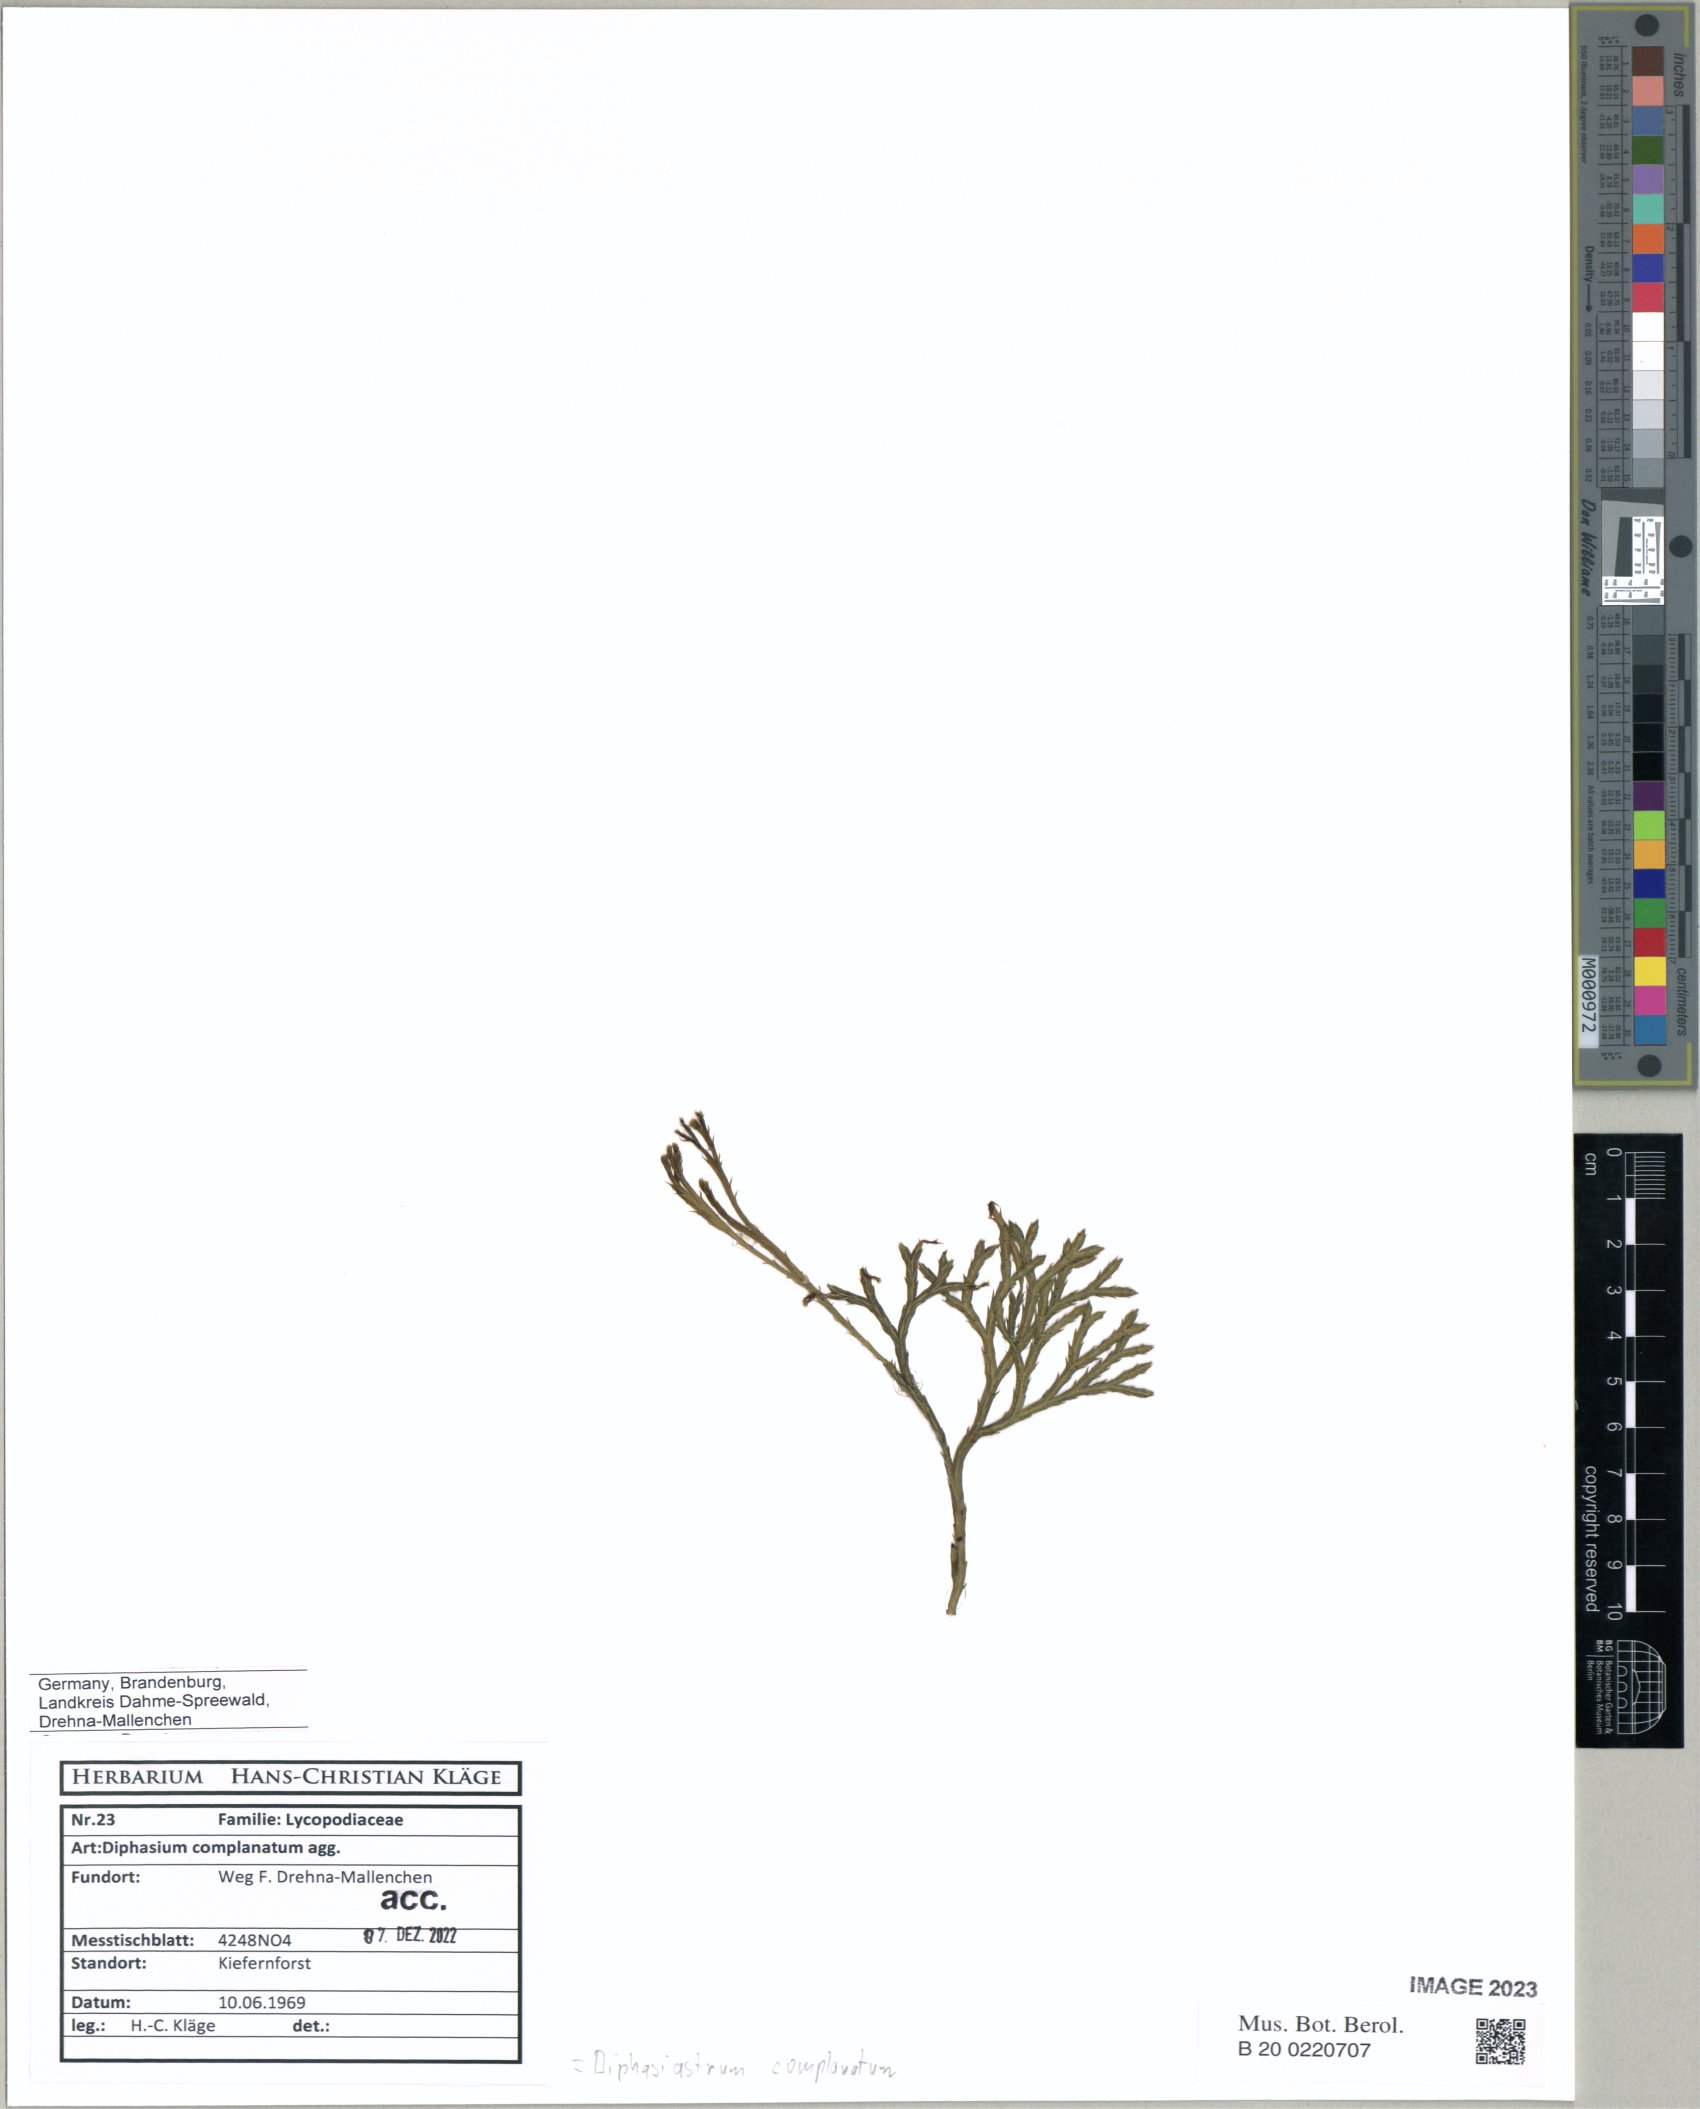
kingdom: Plantae
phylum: Tracheophyta
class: Lycopodiopsida
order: Lycopodiales
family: Lycopodiaceae
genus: Diphasiastrum
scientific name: Diphasiastrum complanatum
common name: Northern running-pine
